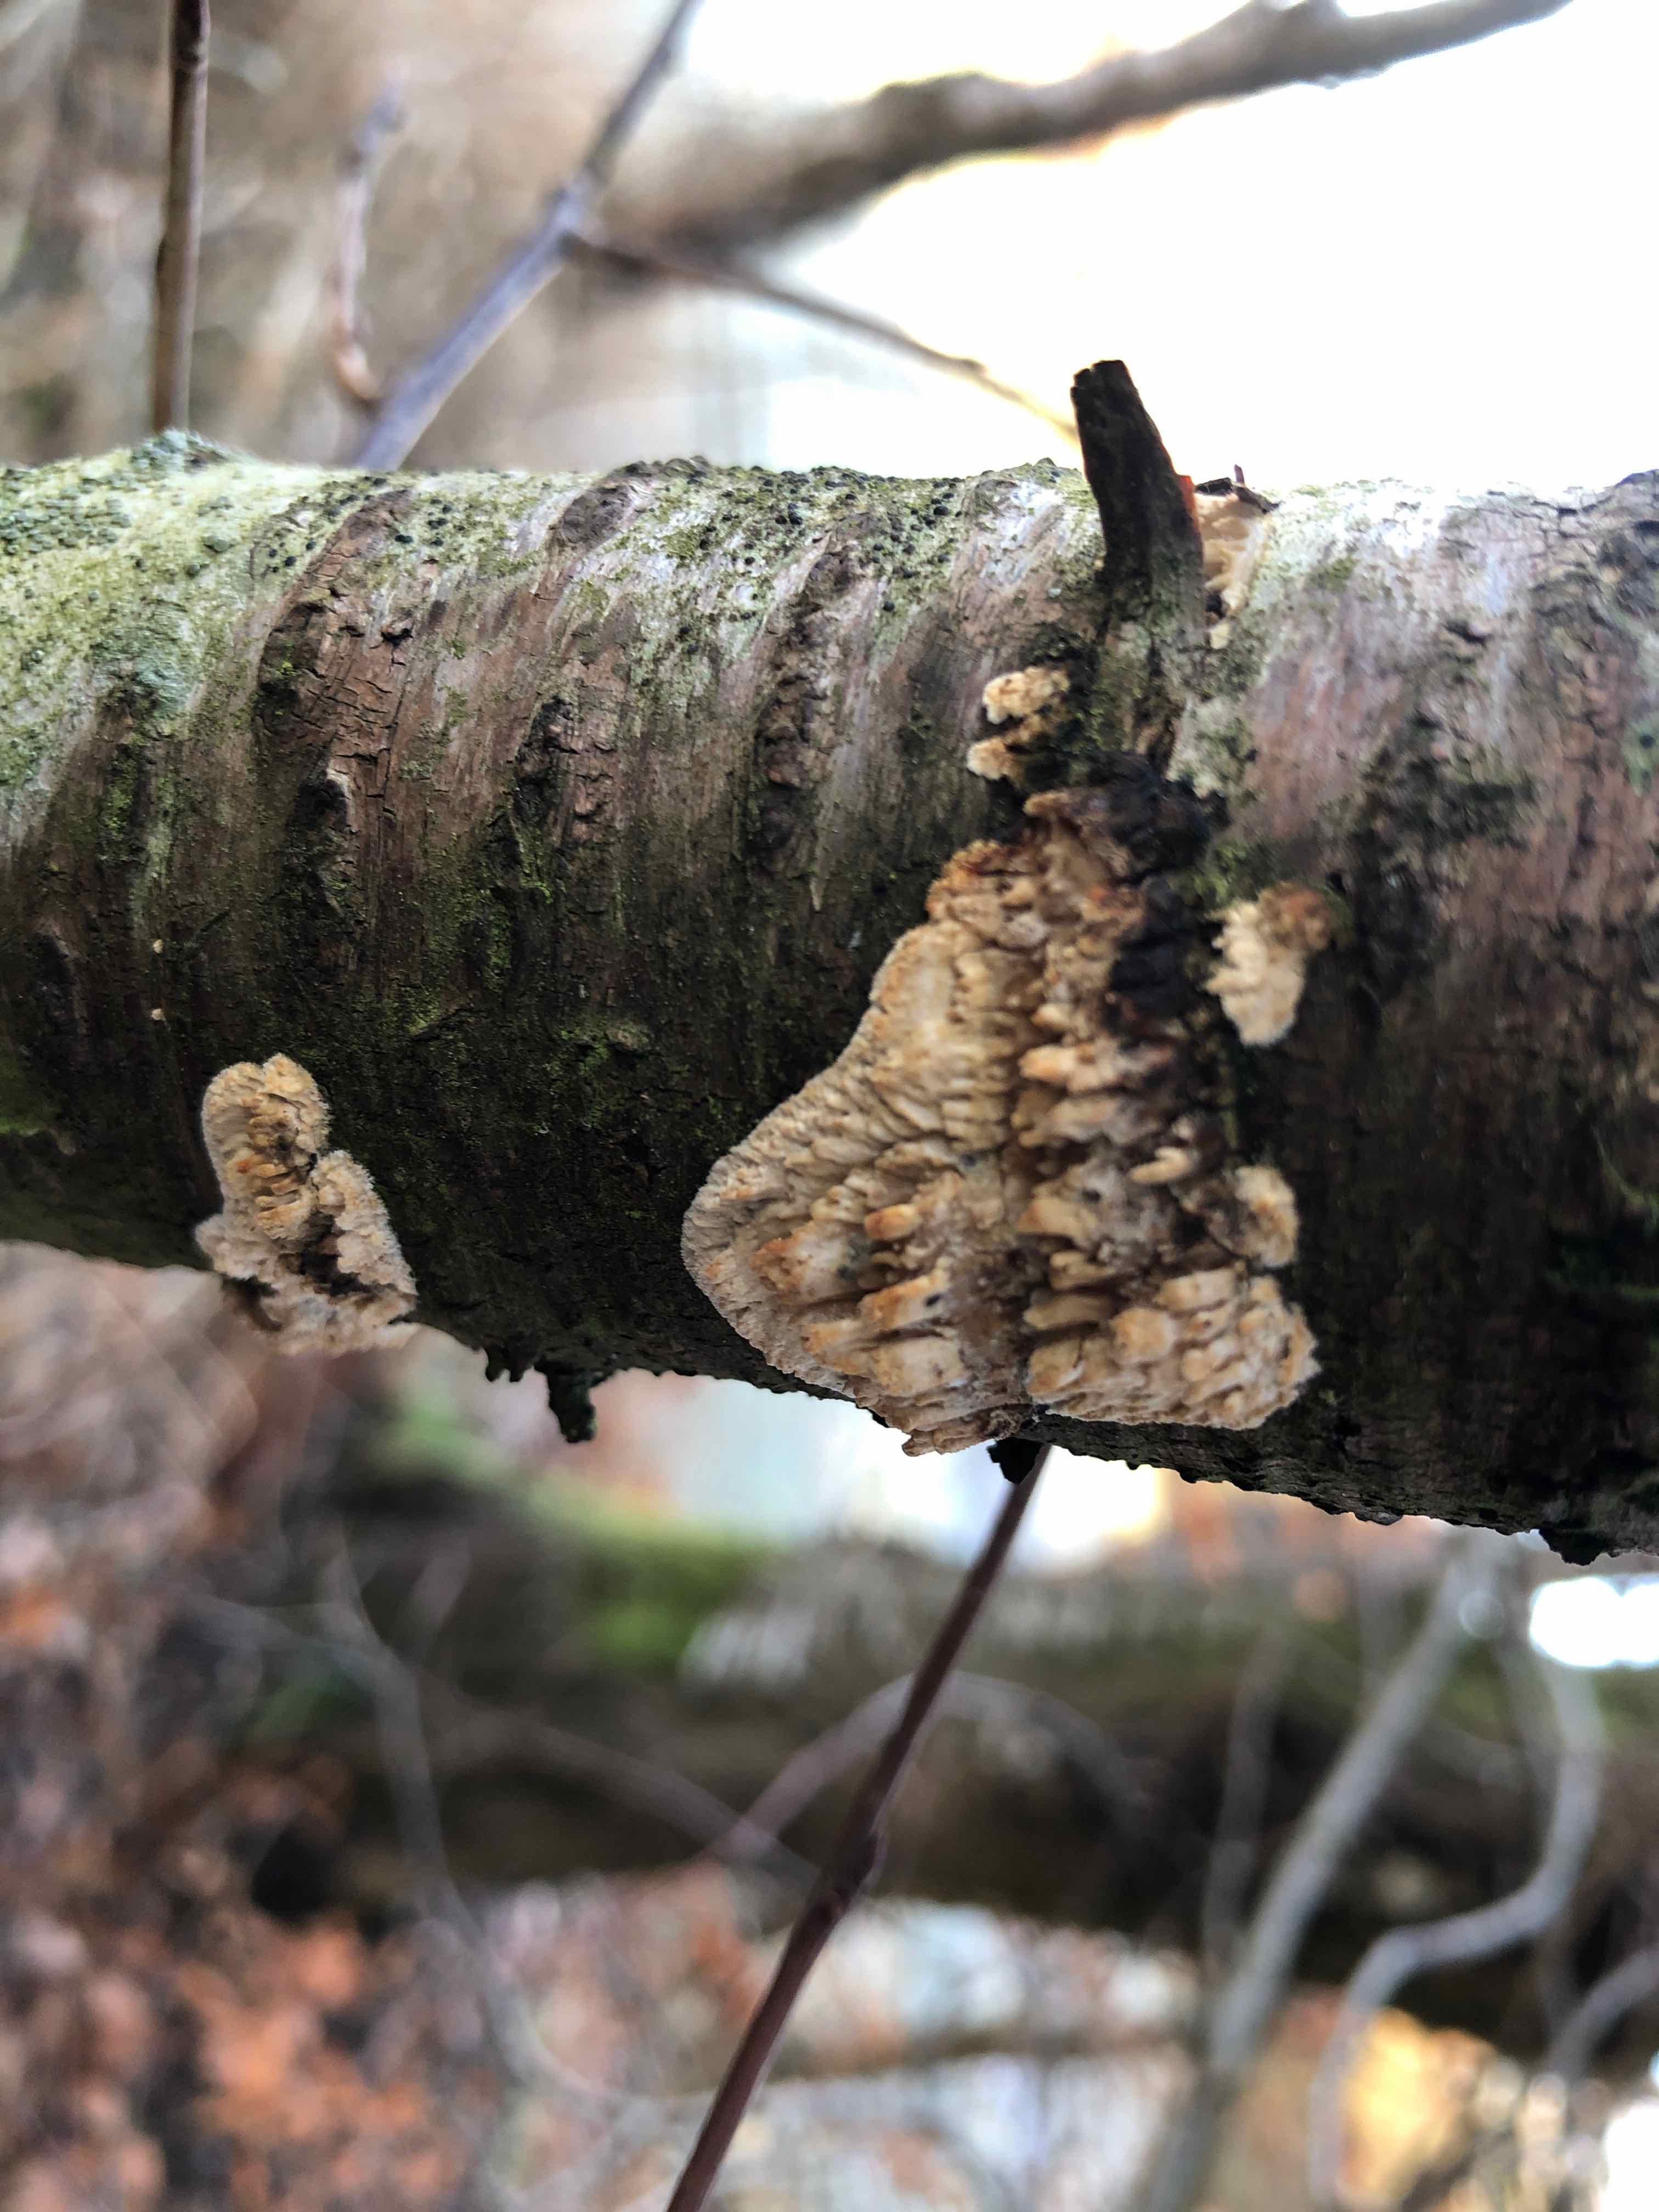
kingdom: Fungi
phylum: Basidiomycota
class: Agaricomycetes
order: Hymenochaetales
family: Schizoporaceae
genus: Xylodon
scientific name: Xylodon radula
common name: grovtandet kalkskind
